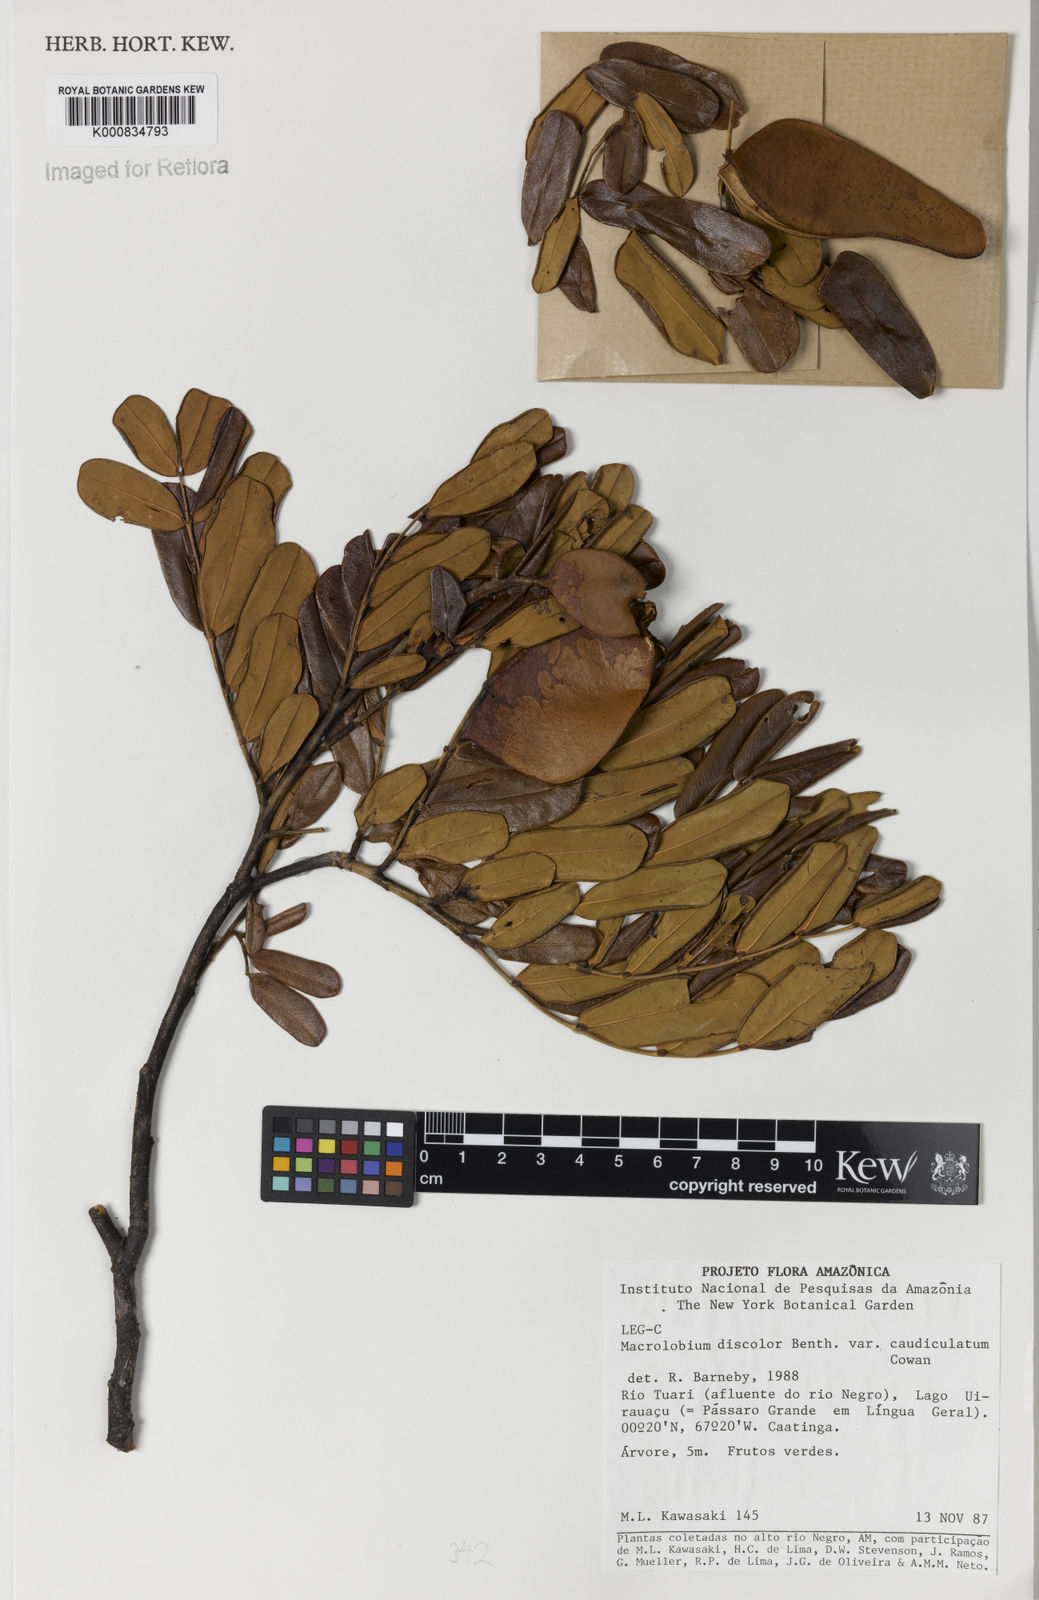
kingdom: Plantae
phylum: Tracheophyta
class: Magnoliopsida
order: Fabales
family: Fabaceae
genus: Macrolobium
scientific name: Macrolobium discolor
